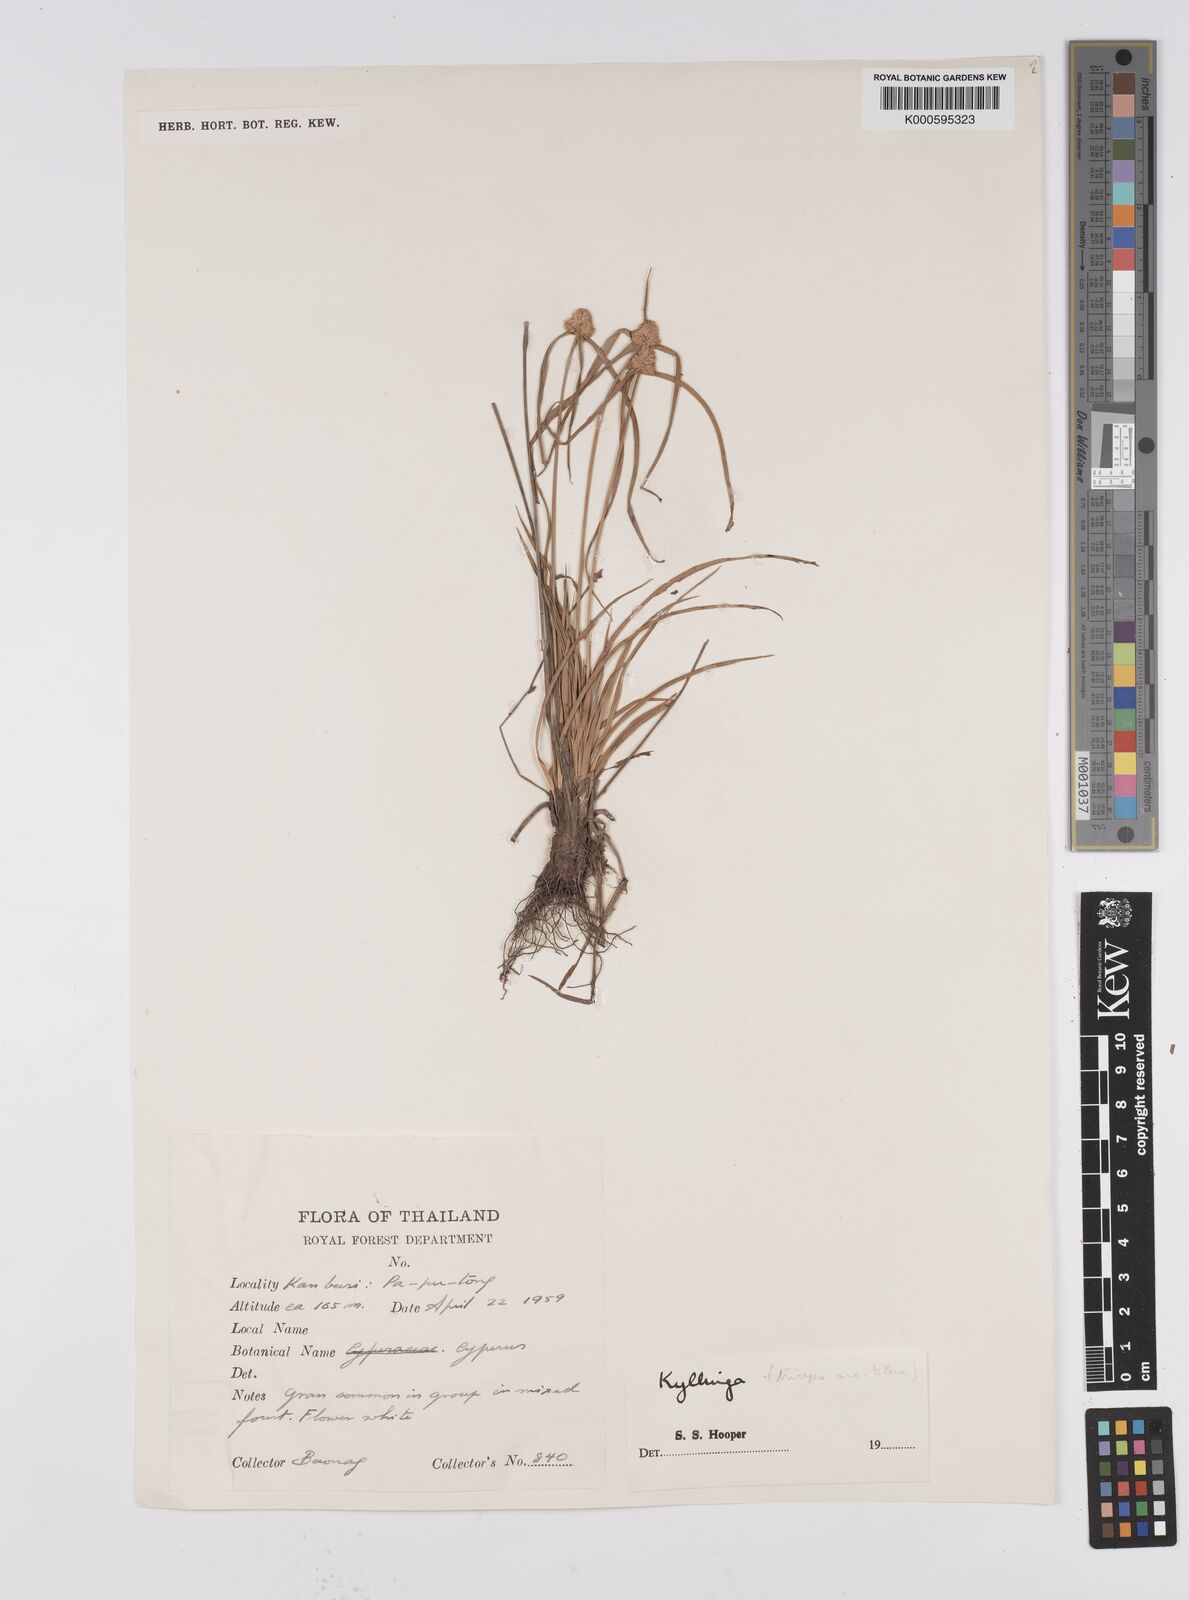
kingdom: Plantae
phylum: Tracheophyta
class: Liliopsida
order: Poales
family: Cyperaceae
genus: Cyperus
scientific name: Cyperus dubius
